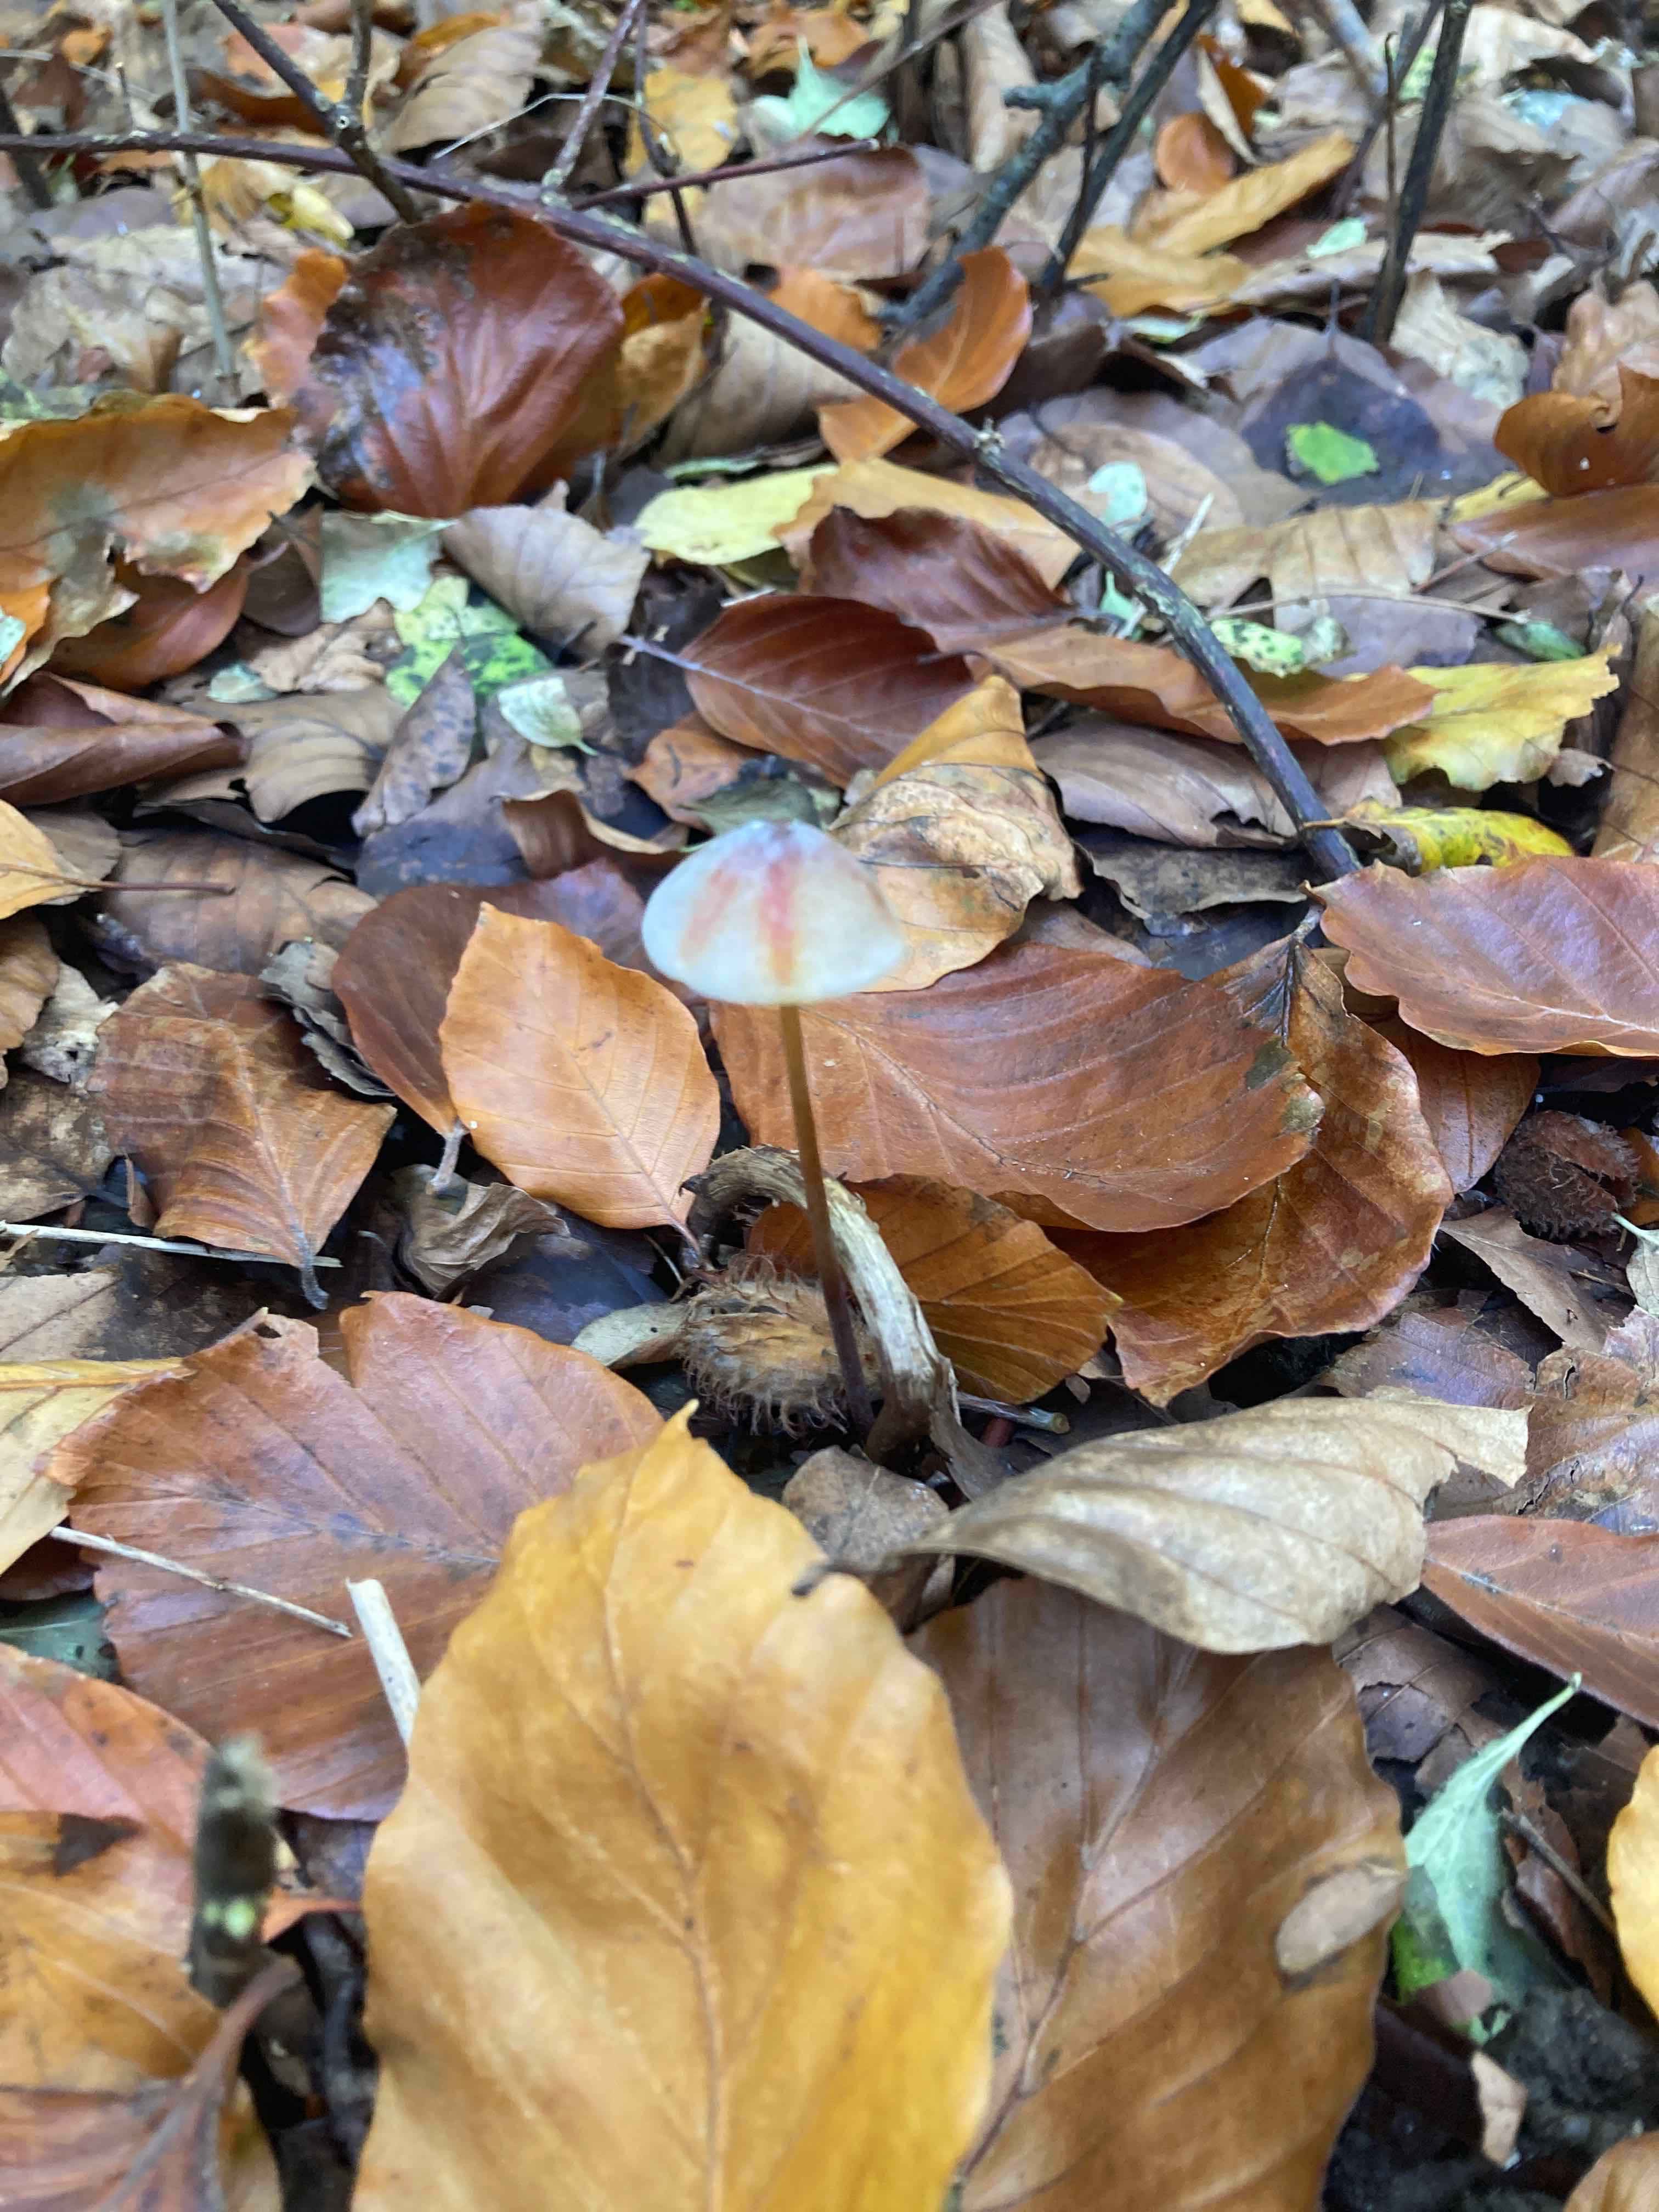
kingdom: Fungi
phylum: Basidiomycota
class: Agaricomycetes
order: Agaricales
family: Mycenaceae
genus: Mycena
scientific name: Mycena crocata
